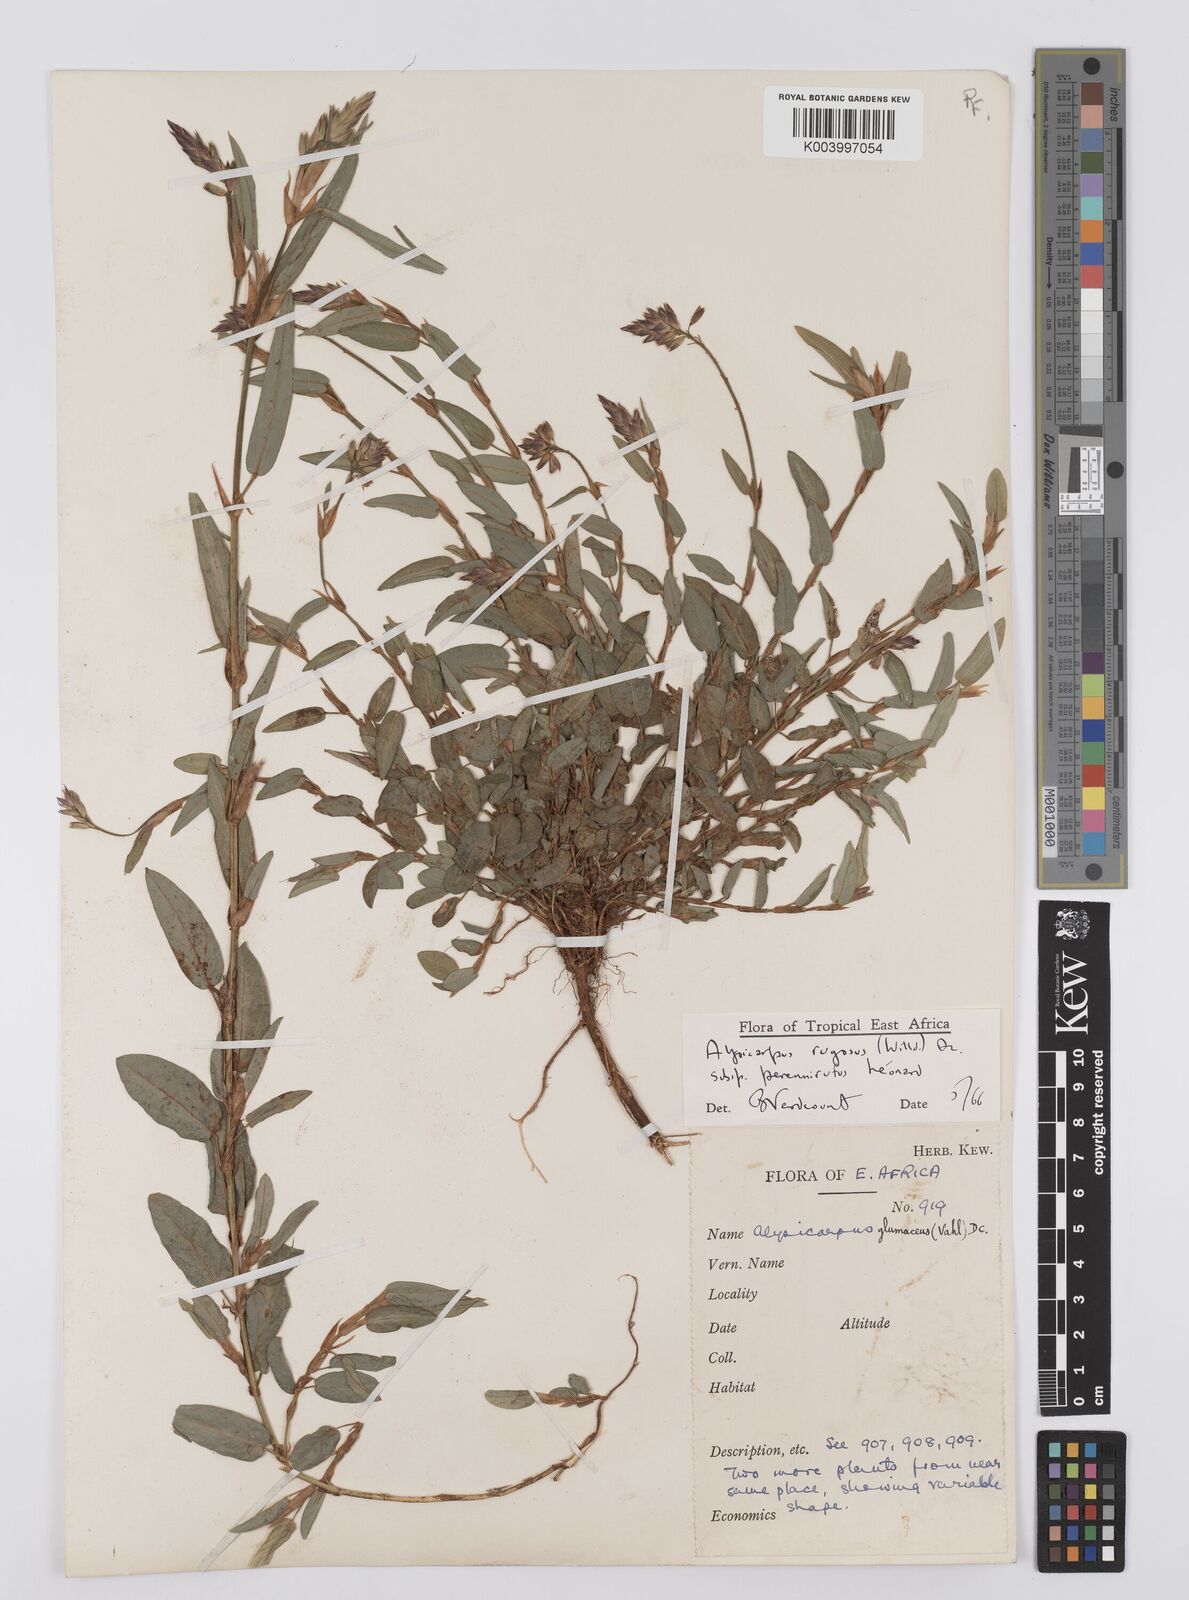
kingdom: Plantae
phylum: Tracheophyta
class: Magnoliopsida
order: Fabales
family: Fabaceae
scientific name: Fabaceae
